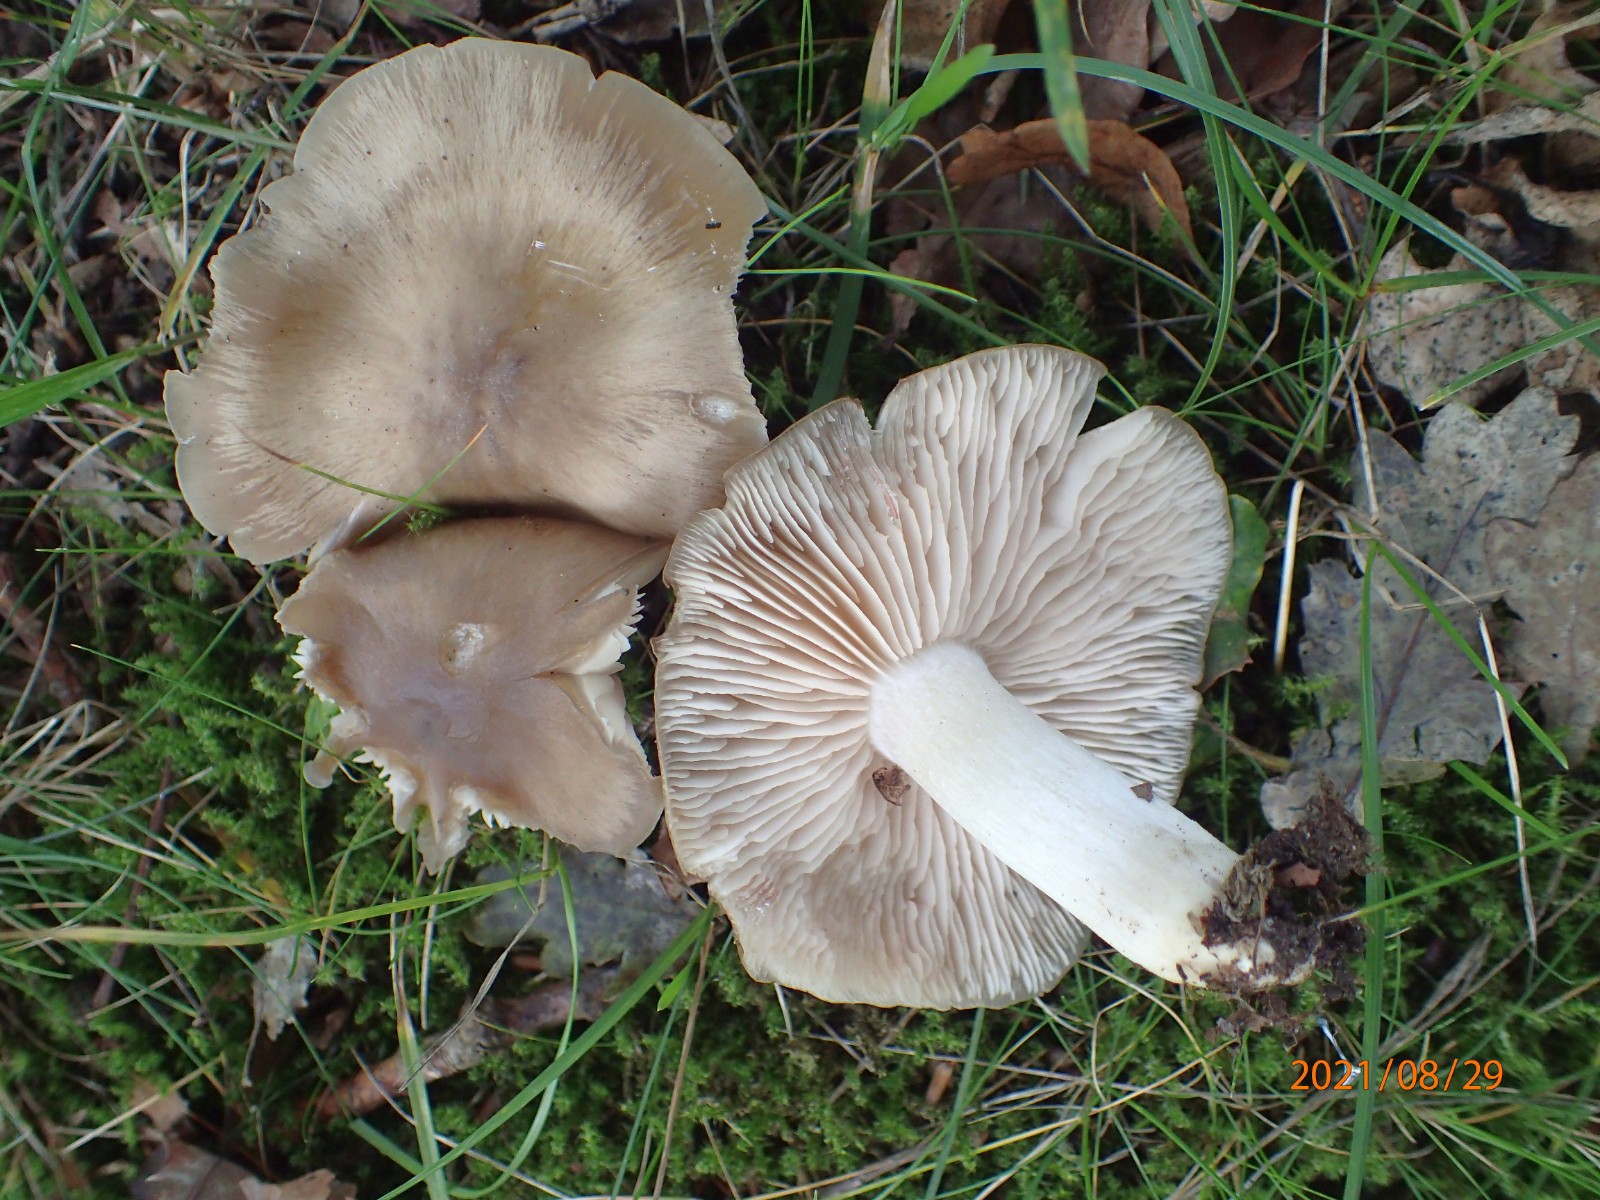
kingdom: Fungi
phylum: Basidiomycota
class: Agaricomycetes
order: Agaricales
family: Entolomataceae
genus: Entoloma
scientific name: Entoloma lividoalbum
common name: lysstokket rødblad
